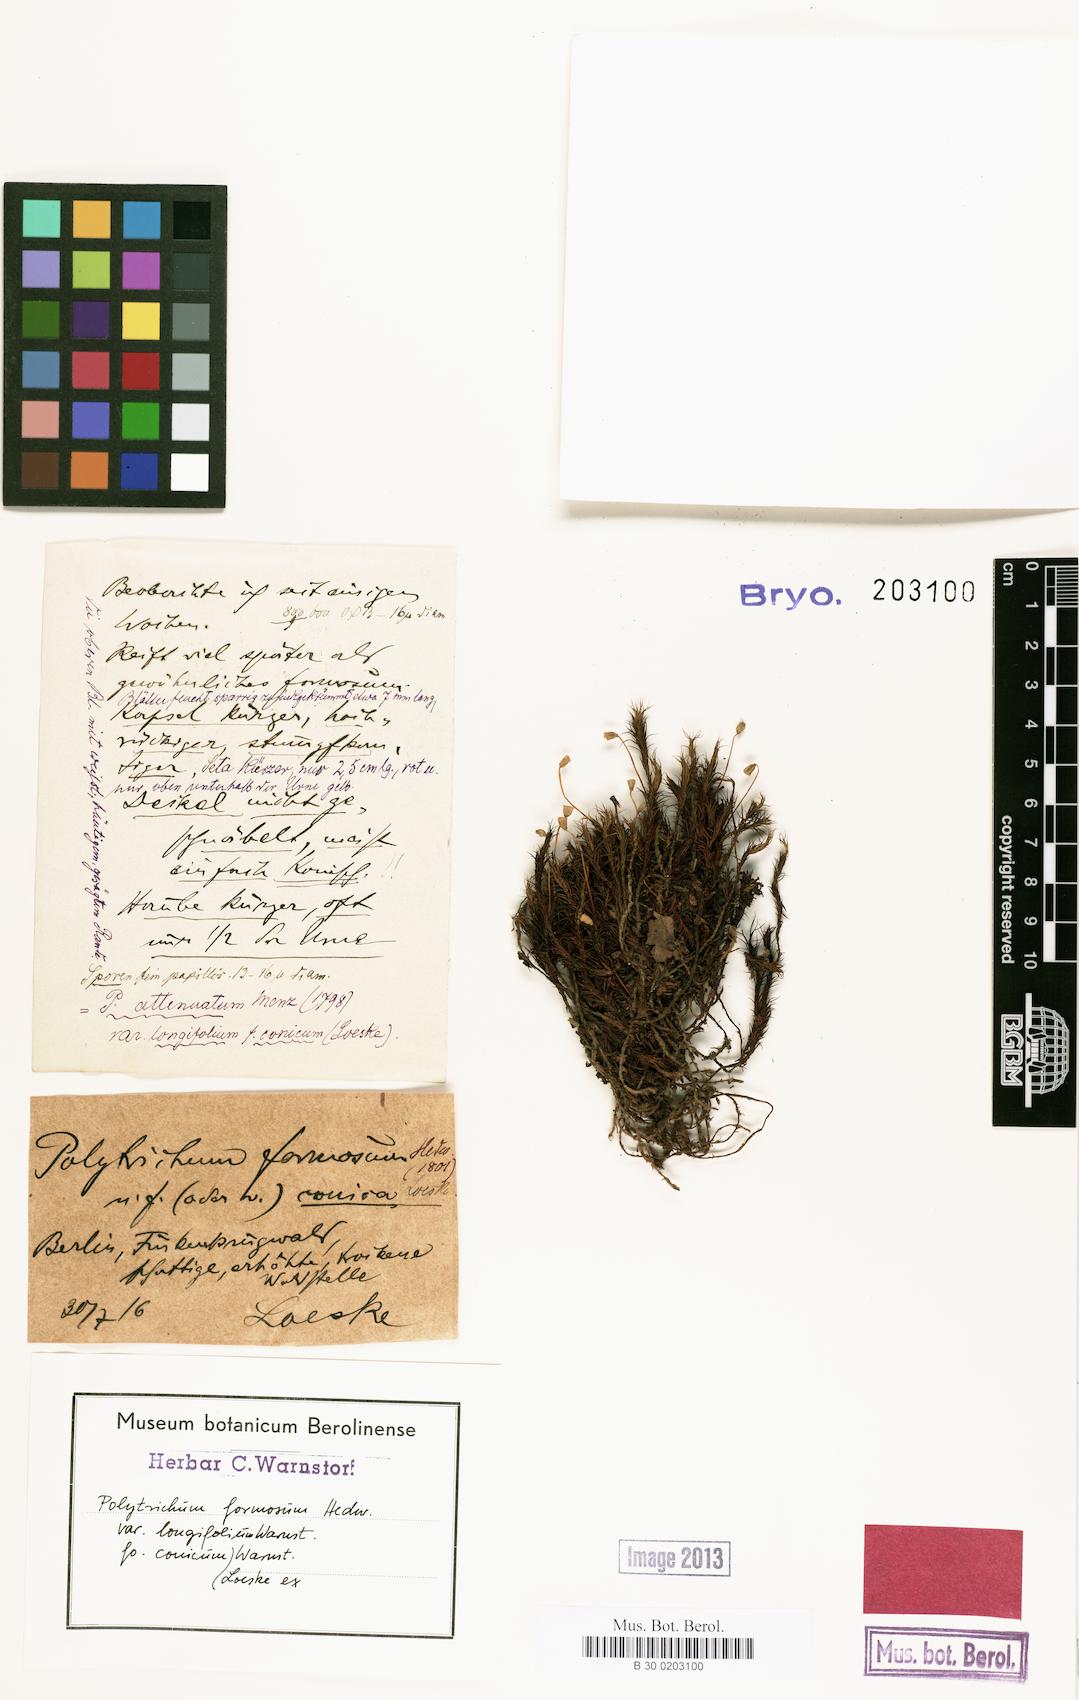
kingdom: Plantae
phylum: Bryophyta
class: Polytrichopsida
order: Polytrichales
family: Polytrichaceae
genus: Polytrichum
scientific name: Polytrichum formosum
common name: Bank haircap moss
